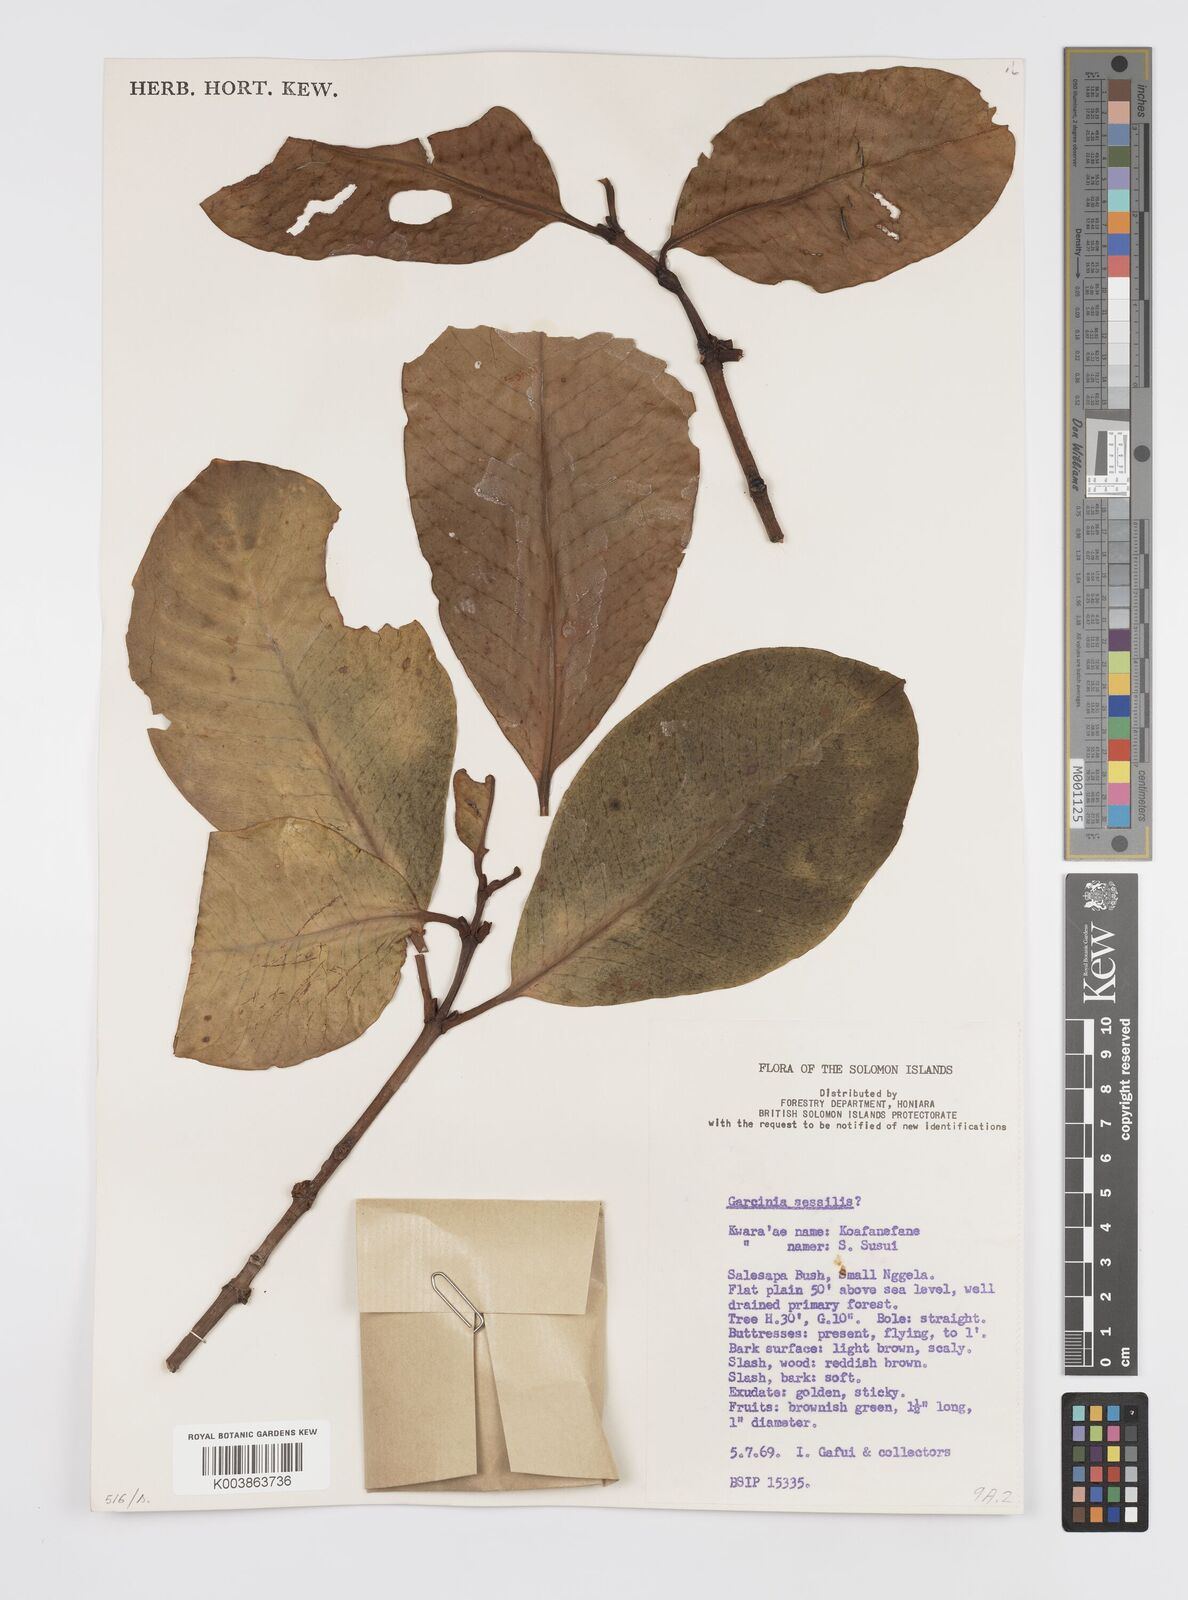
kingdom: Plantae
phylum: Tracheophyta
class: Magnoliopsida
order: Malpighiales
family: Clusiaceae
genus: Garcinia
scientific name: Garcinia sessilis
